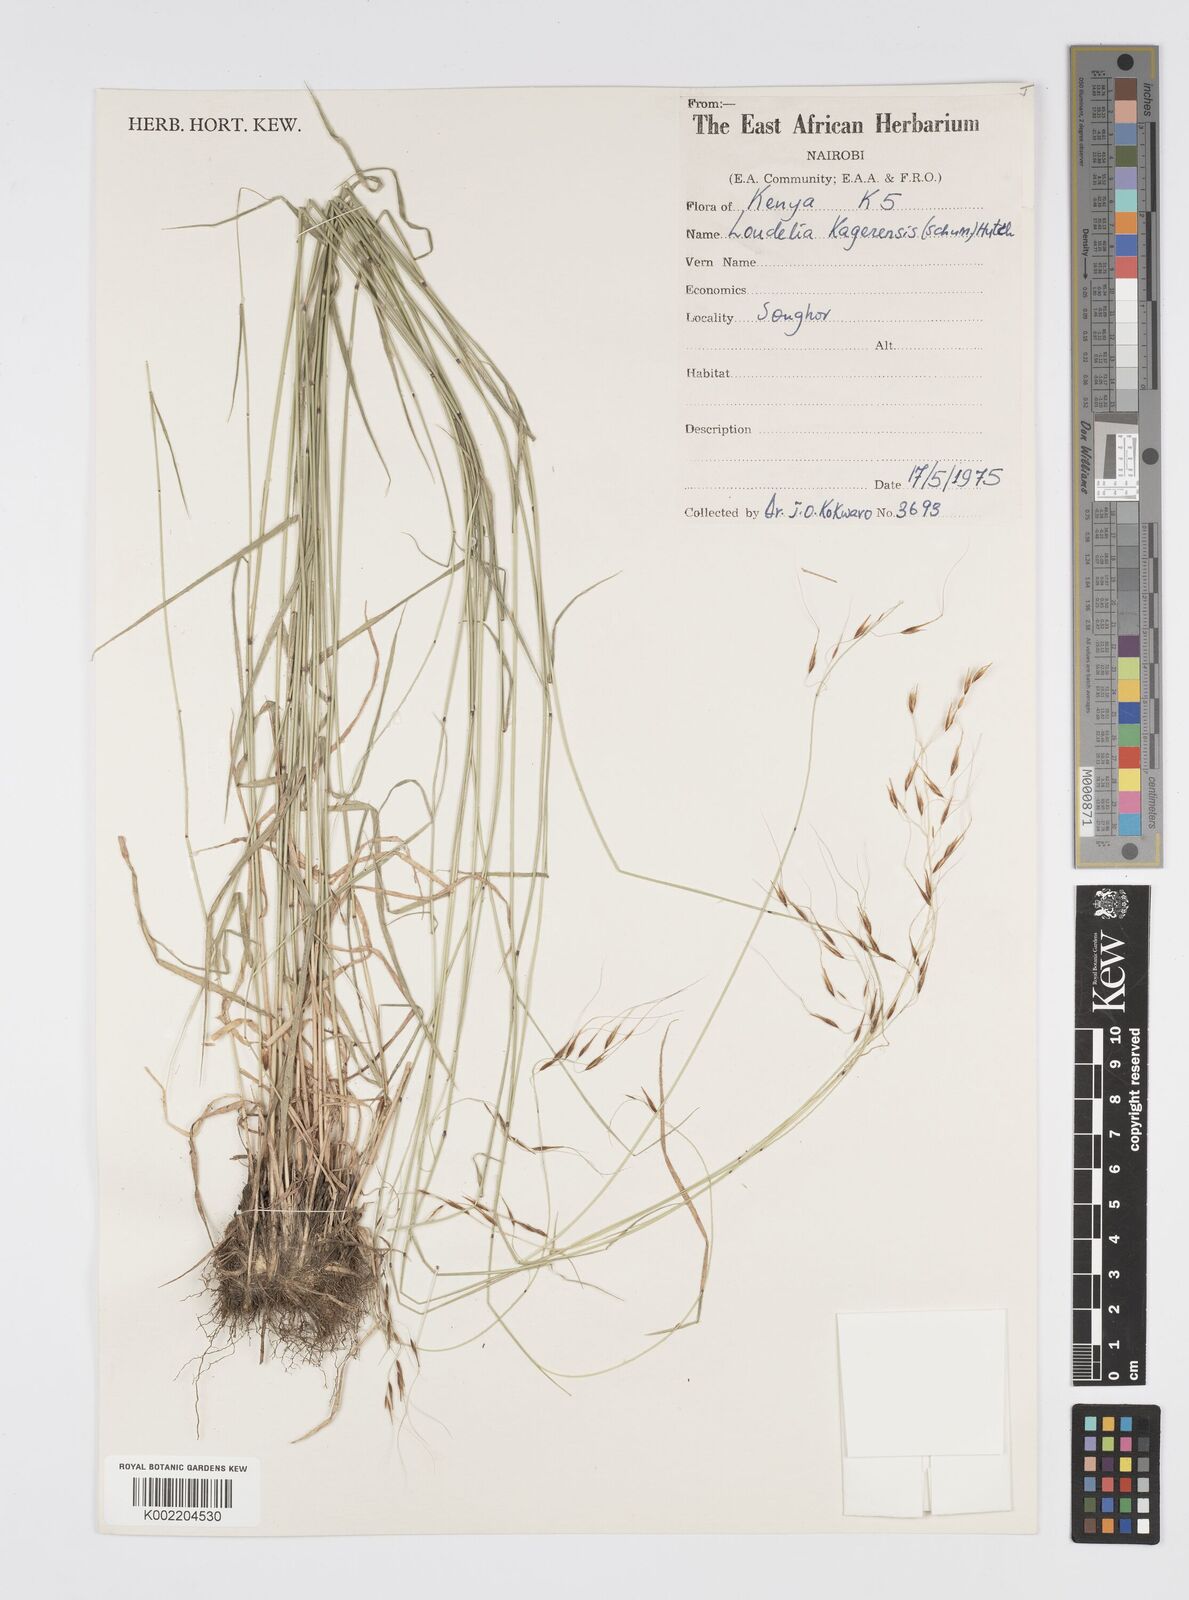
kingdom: Plantae
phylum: Tracheophyta
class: Liliopsida
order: Poales
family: Poaceae
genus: Loudetia
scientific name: Loudetia kagerensis
